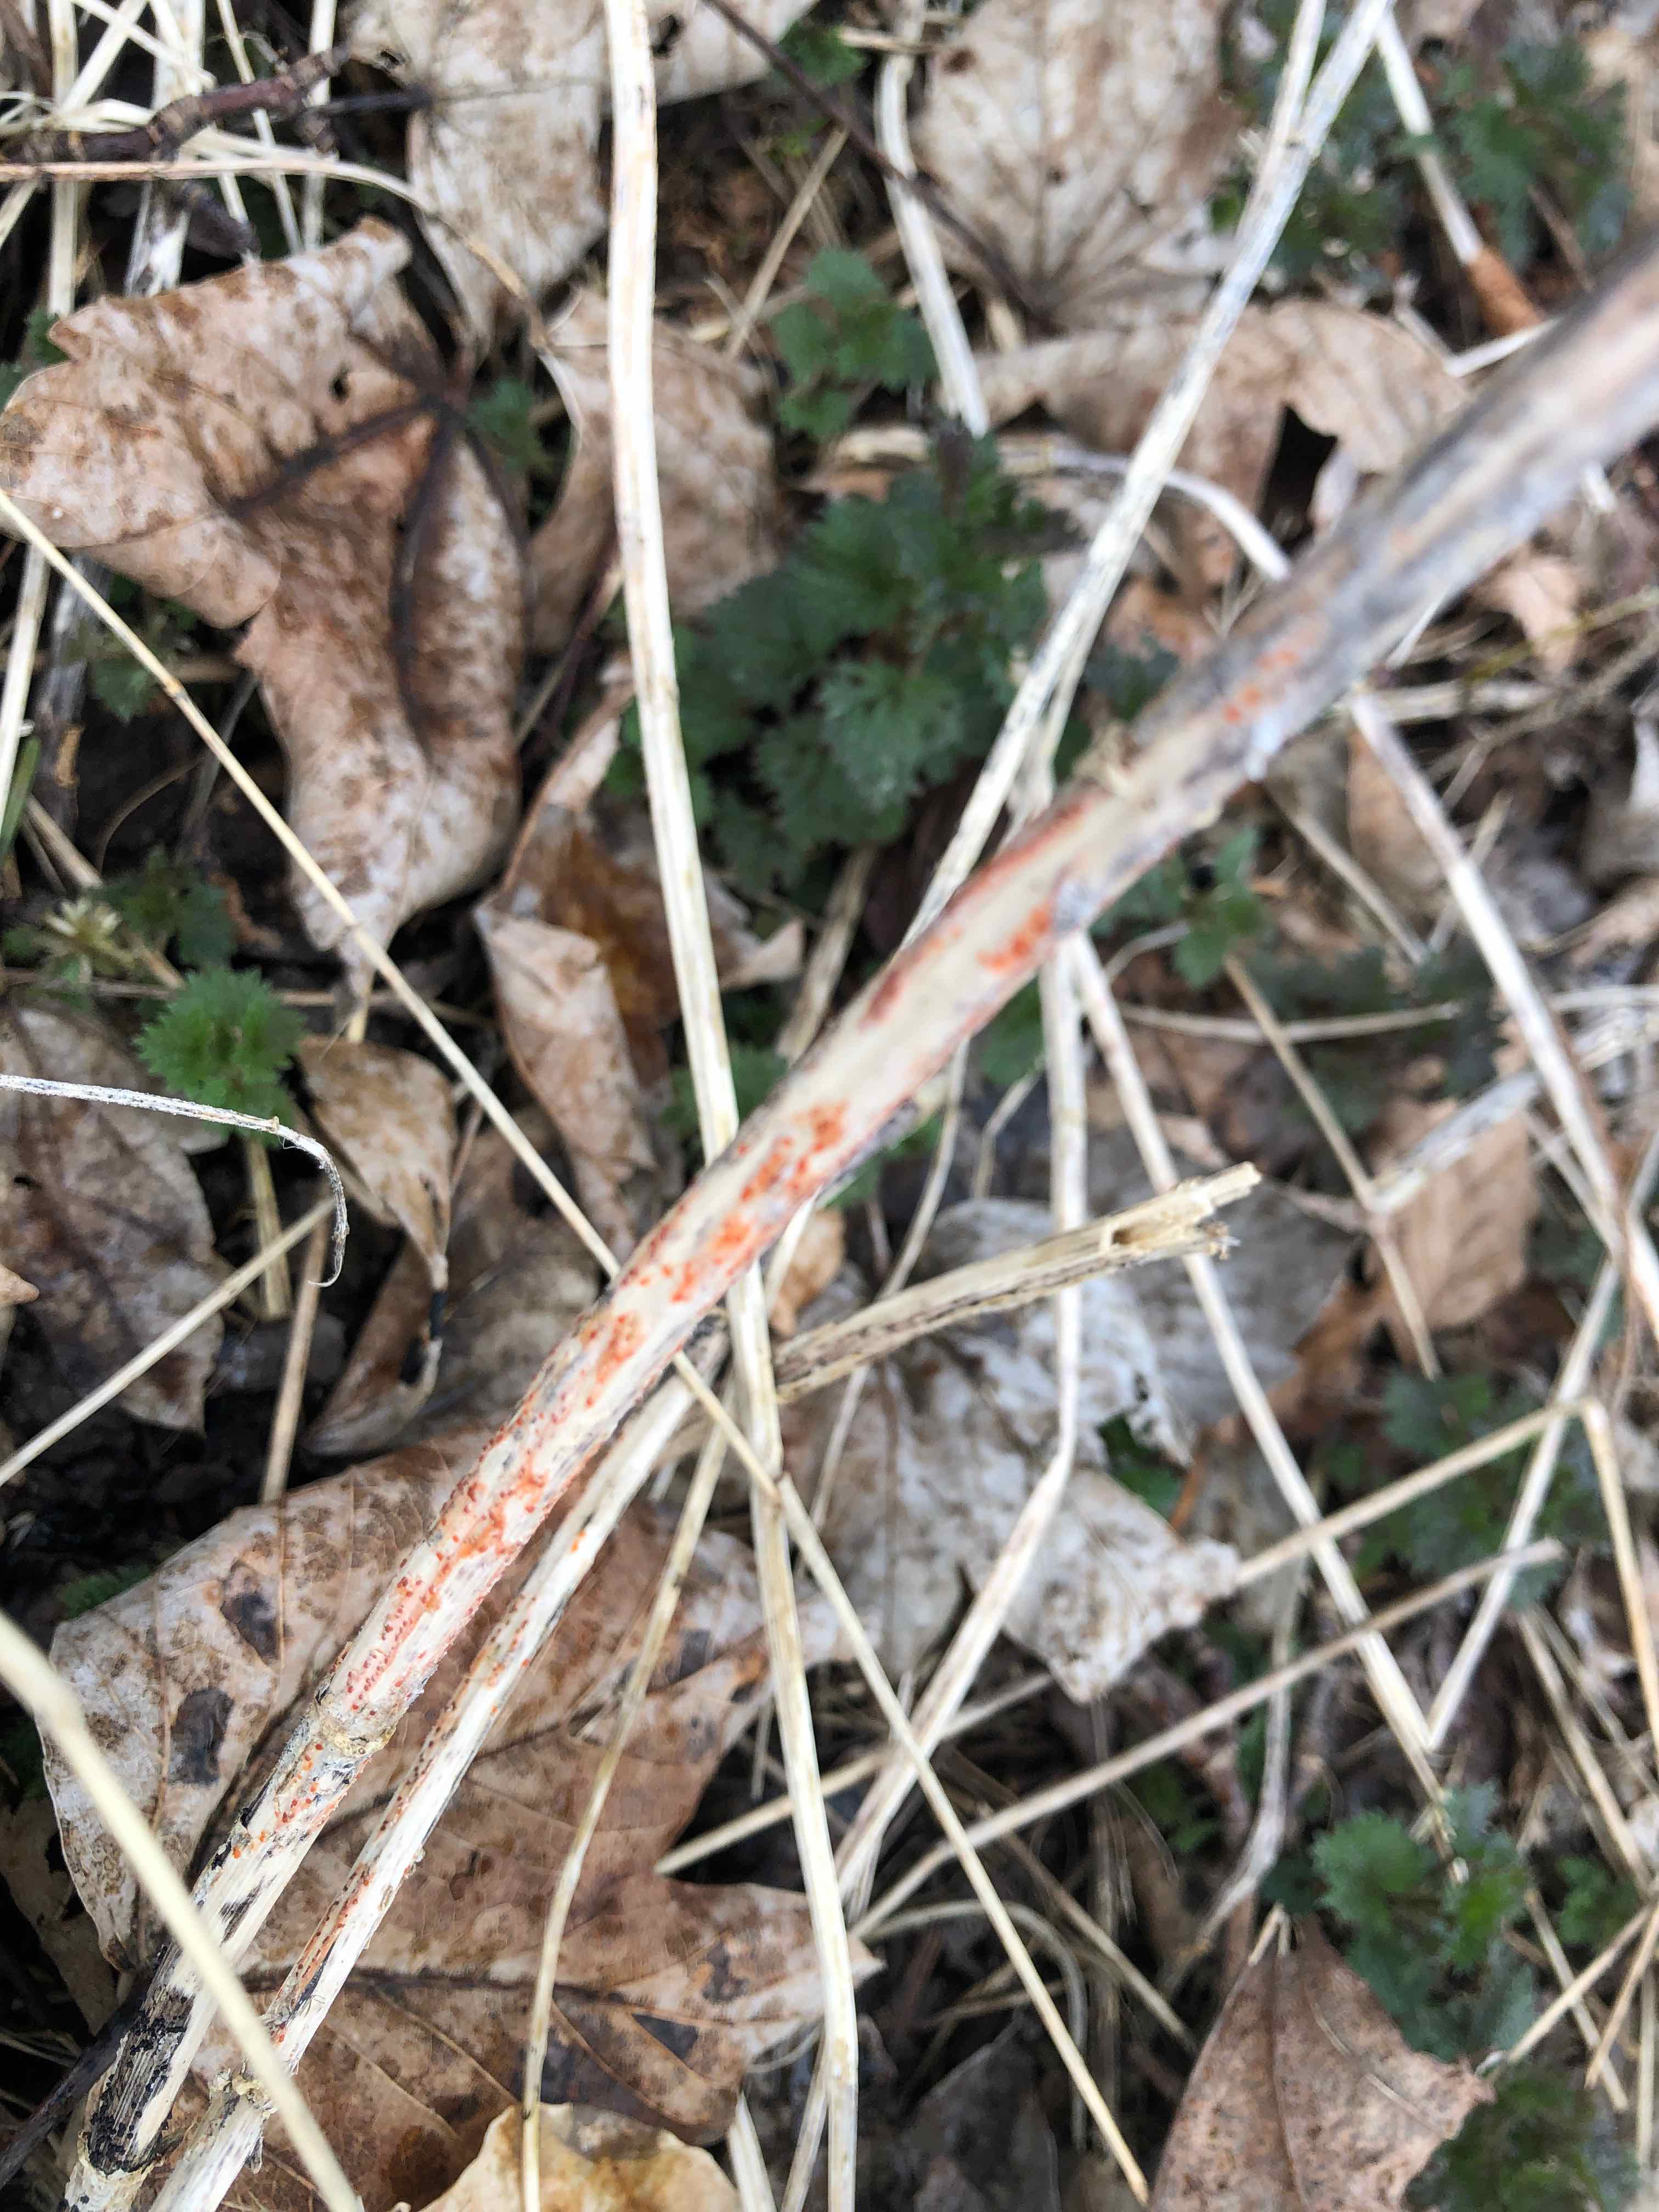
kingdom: Fungi
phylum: Ascomycota
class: Leotiomycetes
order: Helotiales
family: Calloriaceae
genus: Calloria
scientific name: Calloria urticae
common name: nælde-orangeskive
